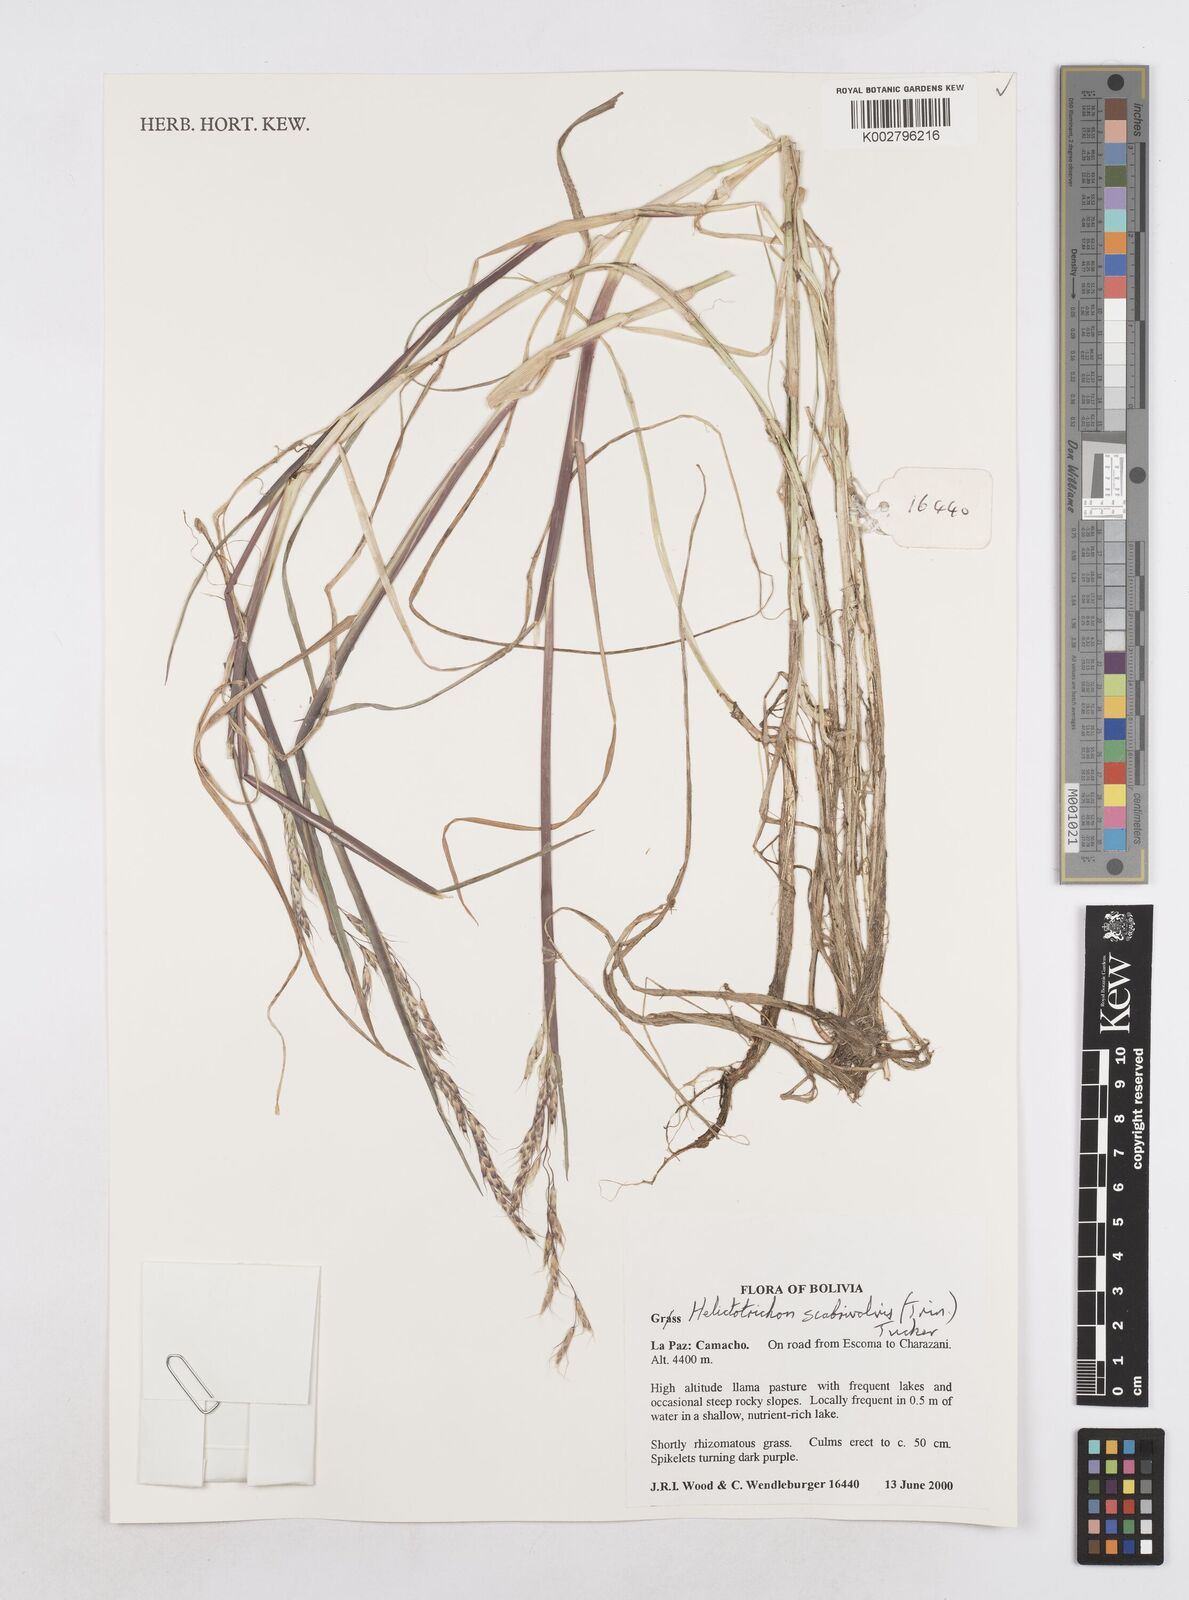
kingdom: Plantae
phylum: Tracheophyta
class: Liliopsida
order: Poales
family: Poaceae
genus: Amphibromus
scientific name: Amphibromus scabrivalvis
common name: Swamp wallaby grass
